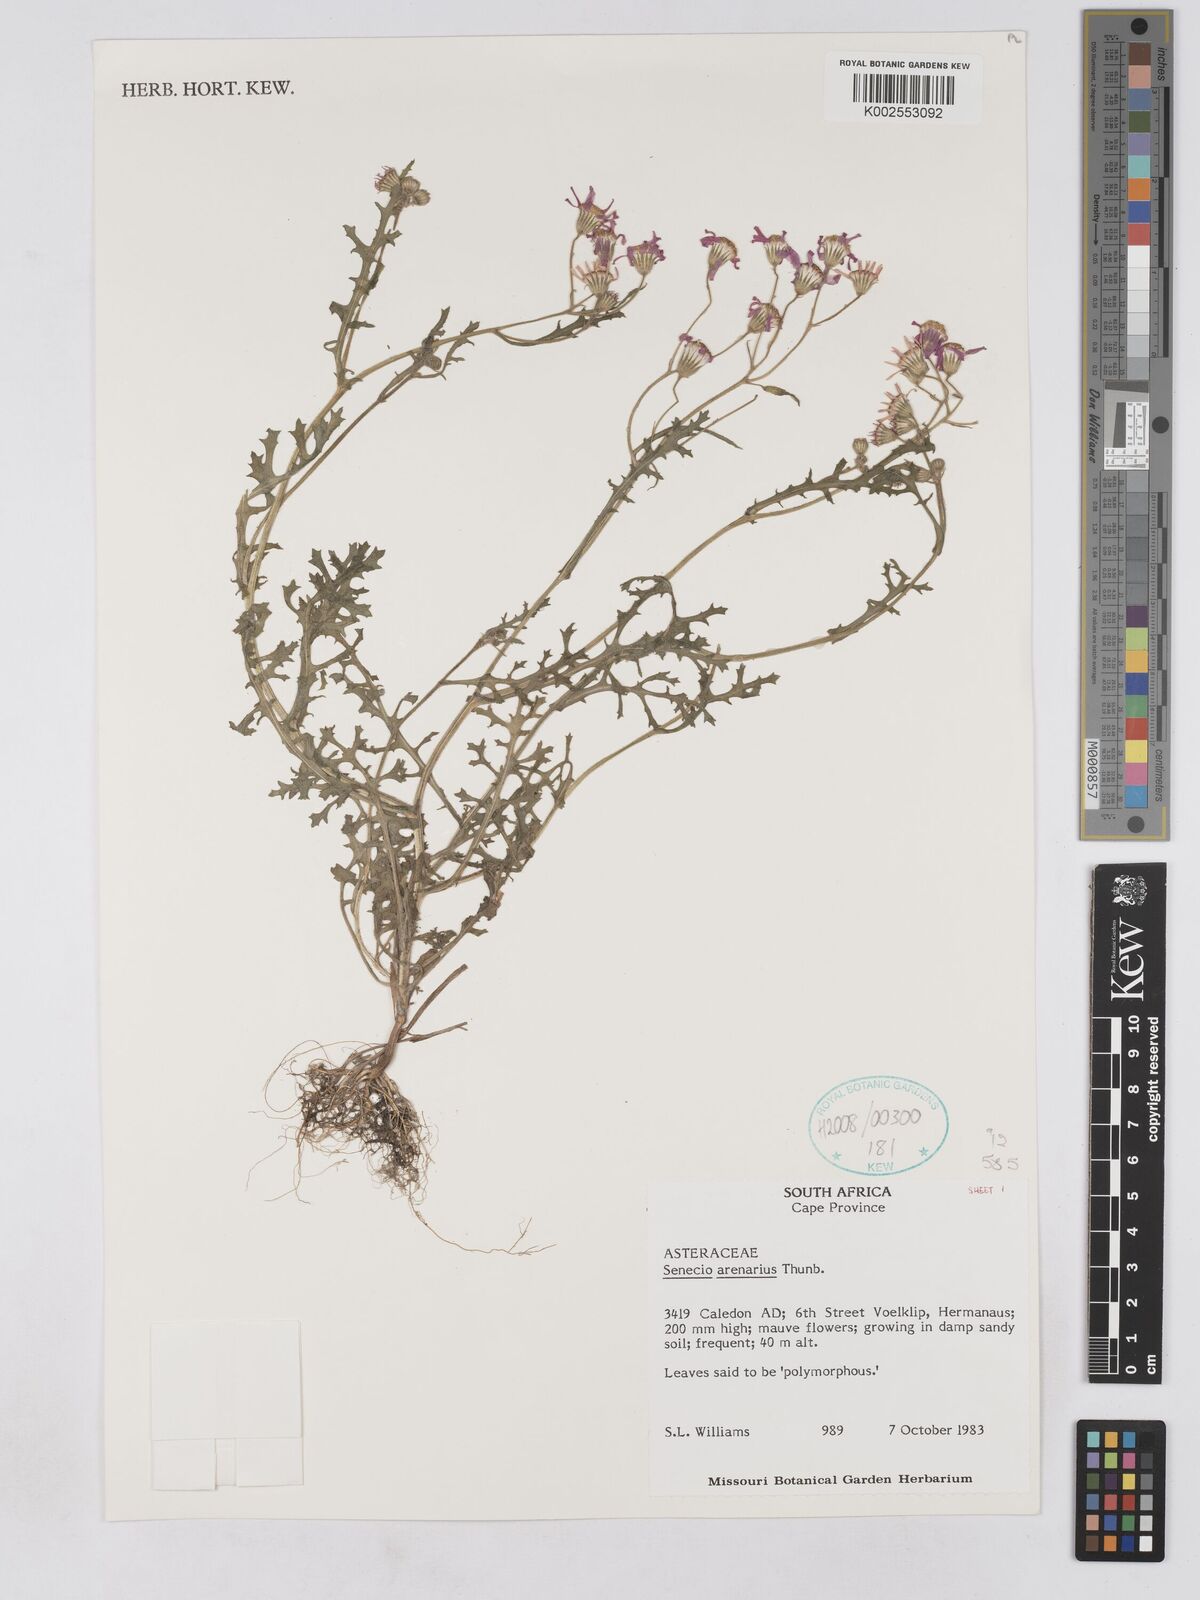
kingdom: Plantae
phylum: Tracheophyta
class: Magnoliopsida
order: Asterales
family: Asteraceae
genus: Senecio
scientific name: Senecio arenarius
